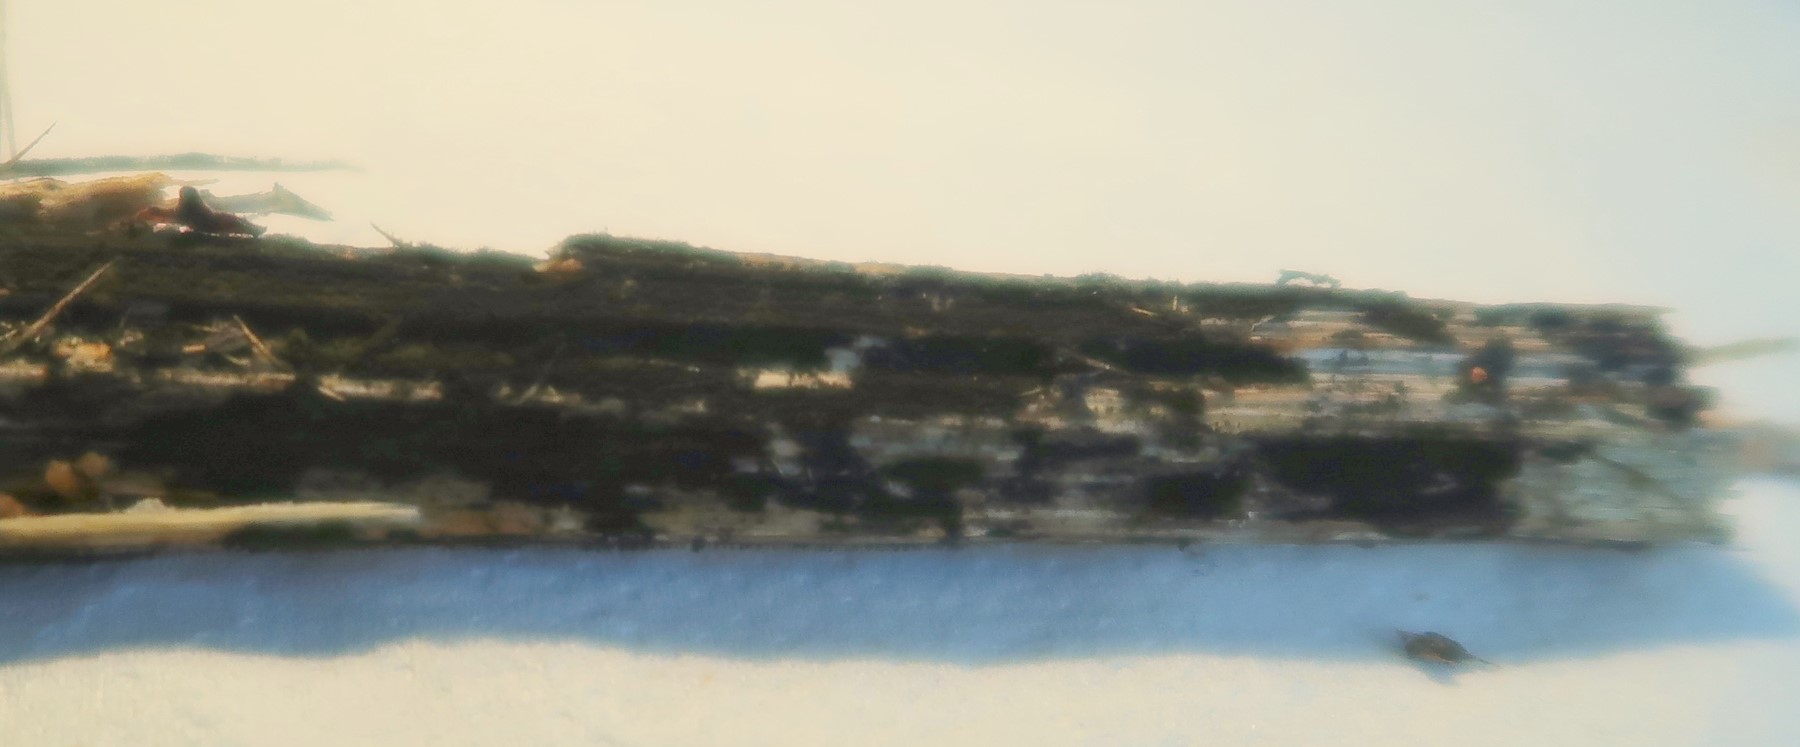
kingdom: Fungi
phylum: Ascomycota
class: Dothideomycetes
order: Pleosporales
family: Torulaceae
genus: Torula
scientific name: Torula herbarum
